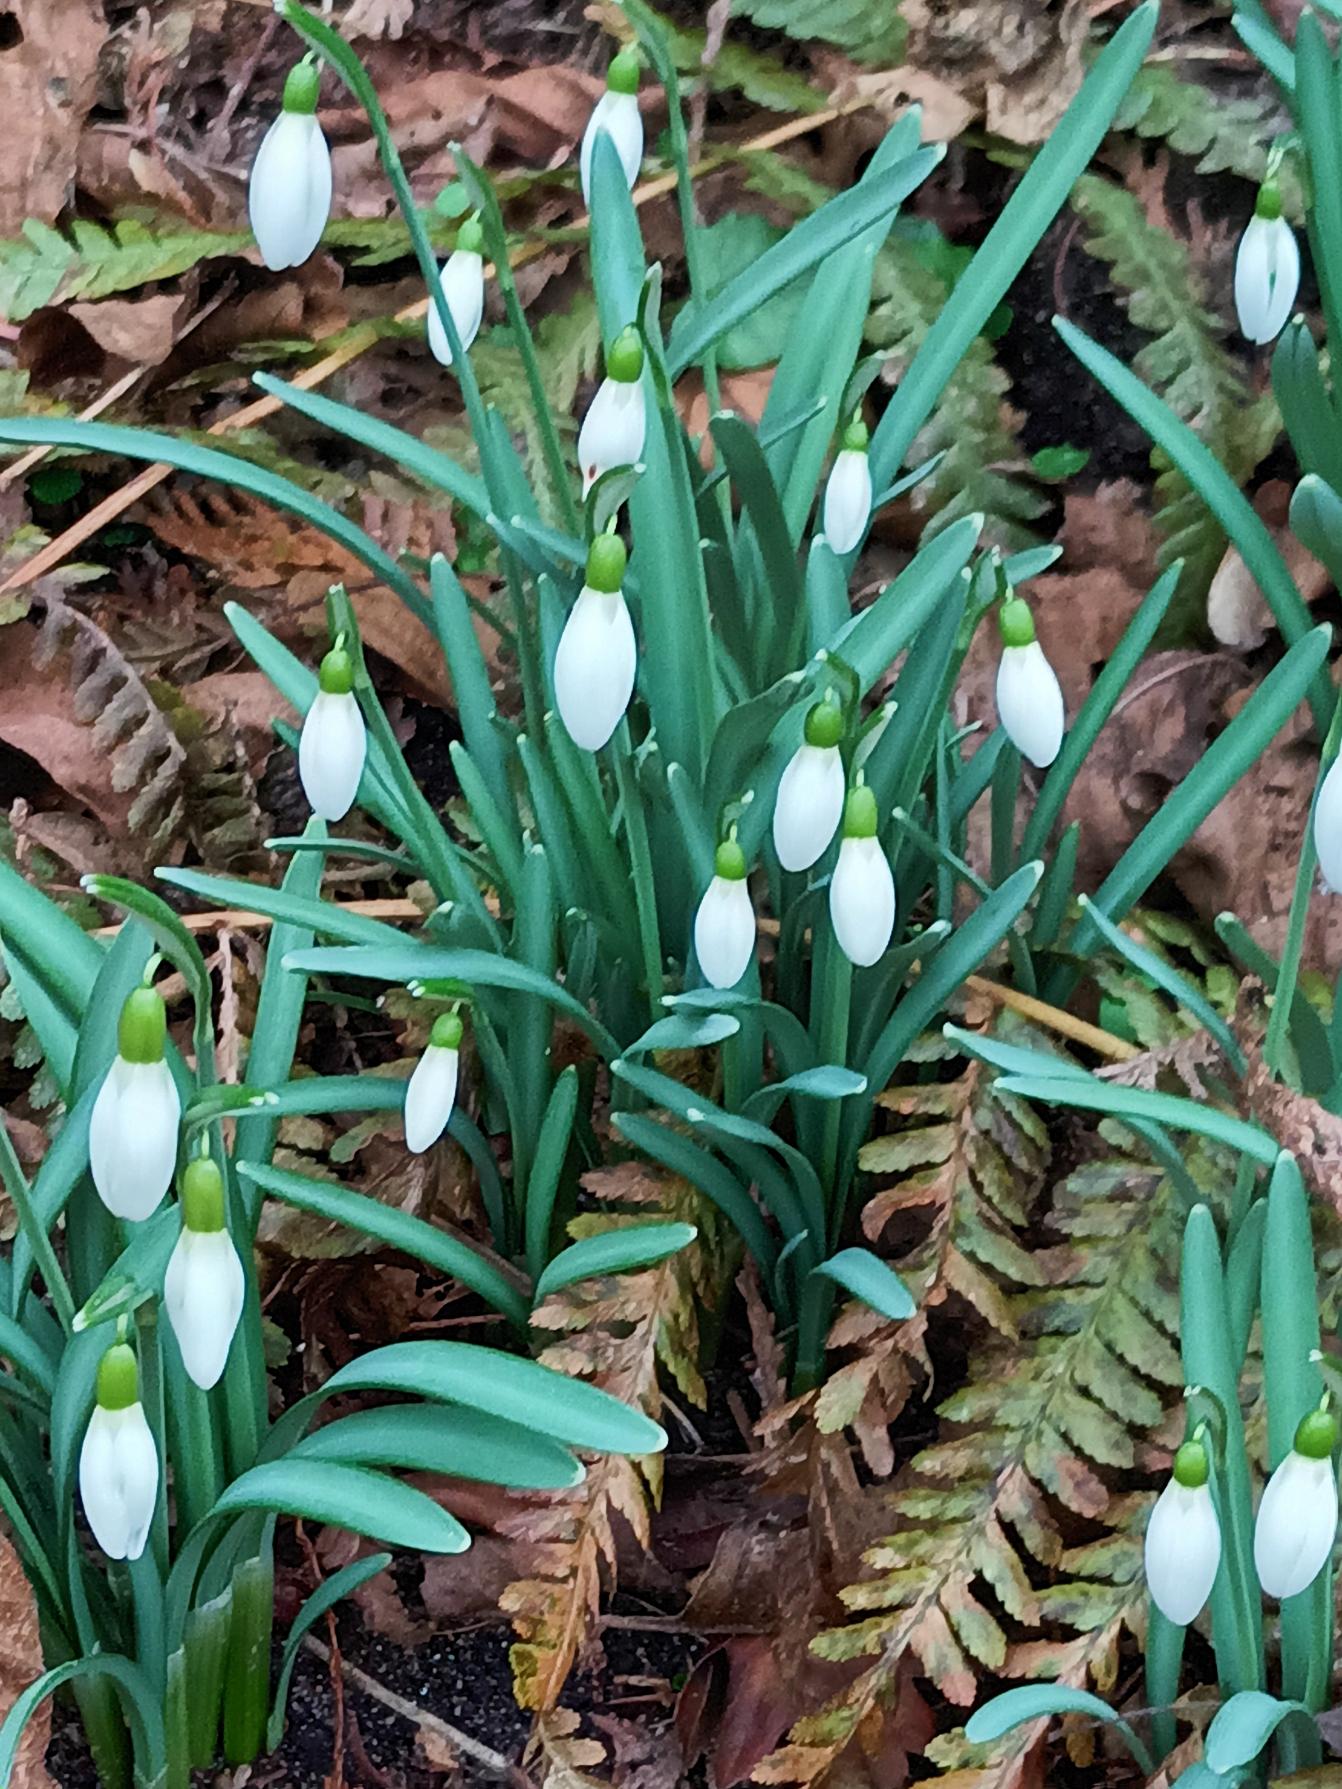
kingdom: Plantae
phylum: Tracheophyta
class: Liliopsida
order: Asparagales
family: Amaryllidaceae
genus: Galanthus
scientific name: Galanthus nivalis
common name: Vintergæk
